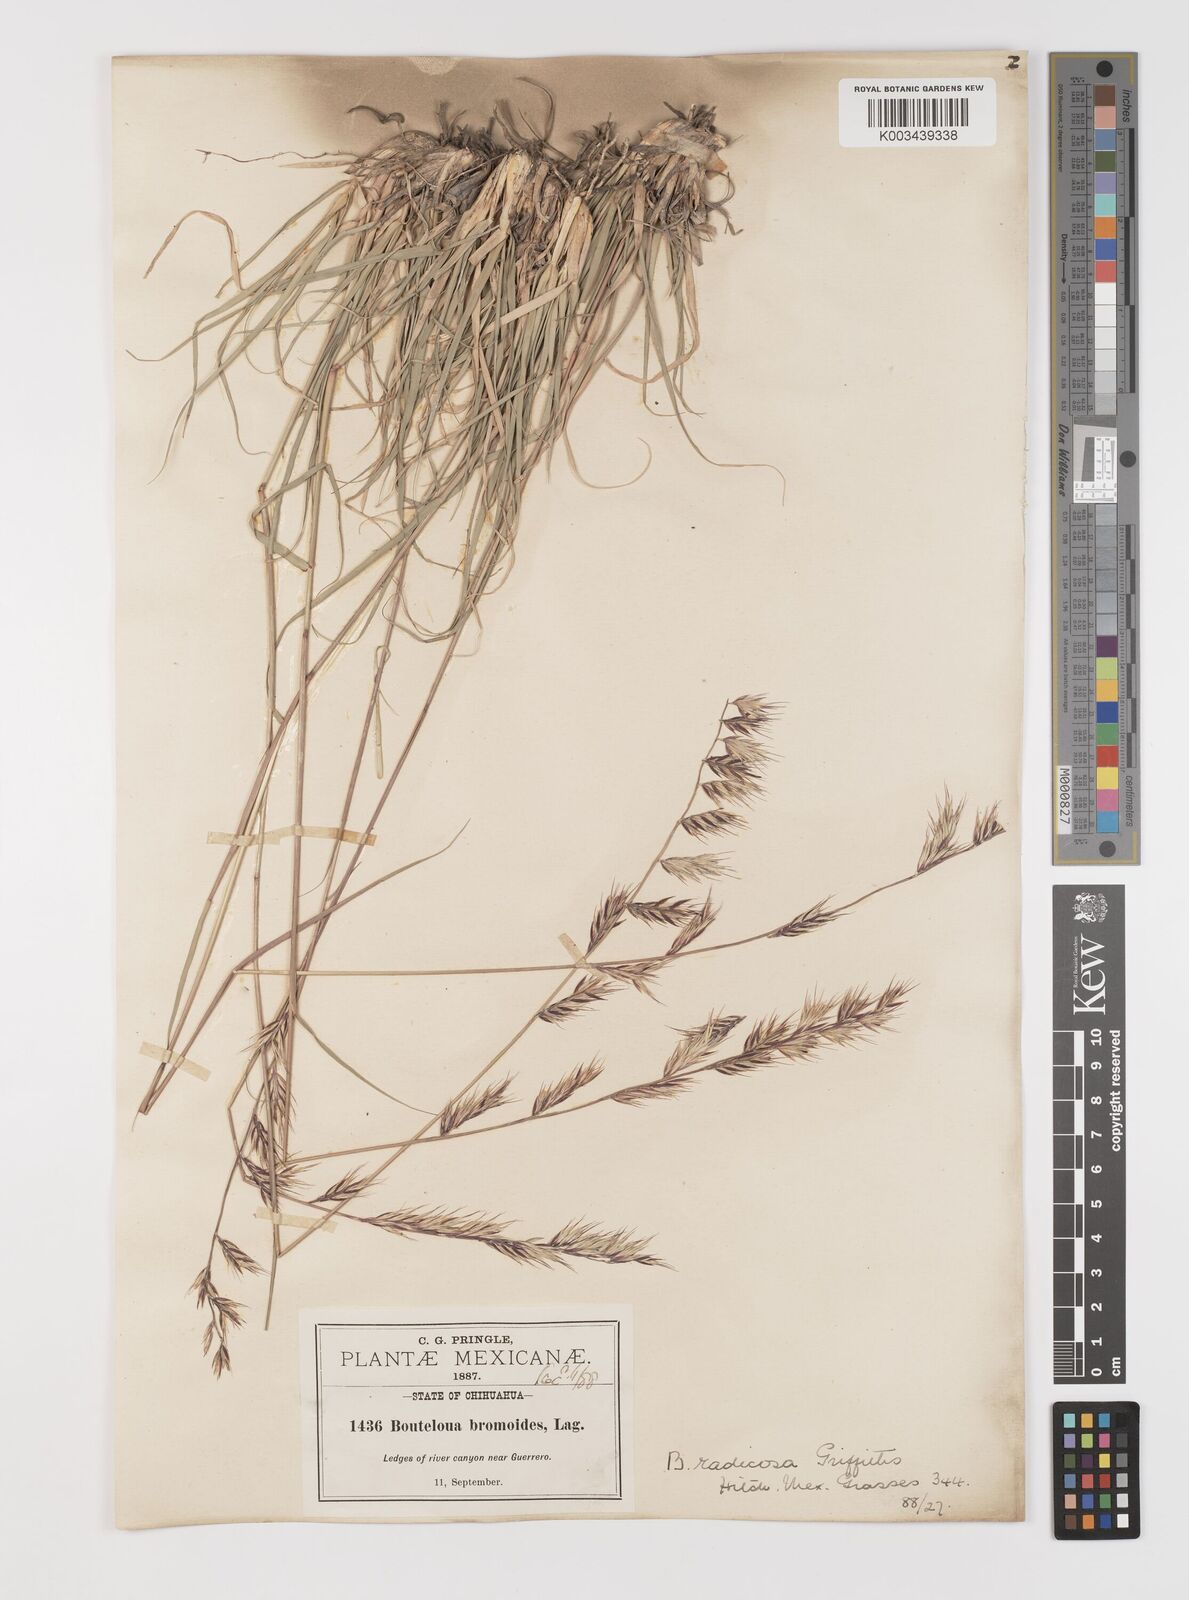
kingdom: Plantae
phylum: Tracheophyta
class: Liliopsida
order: Poales
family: Poaceae
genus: Bouteloua
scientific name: Bouteloua radicosa
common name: Purple grama
